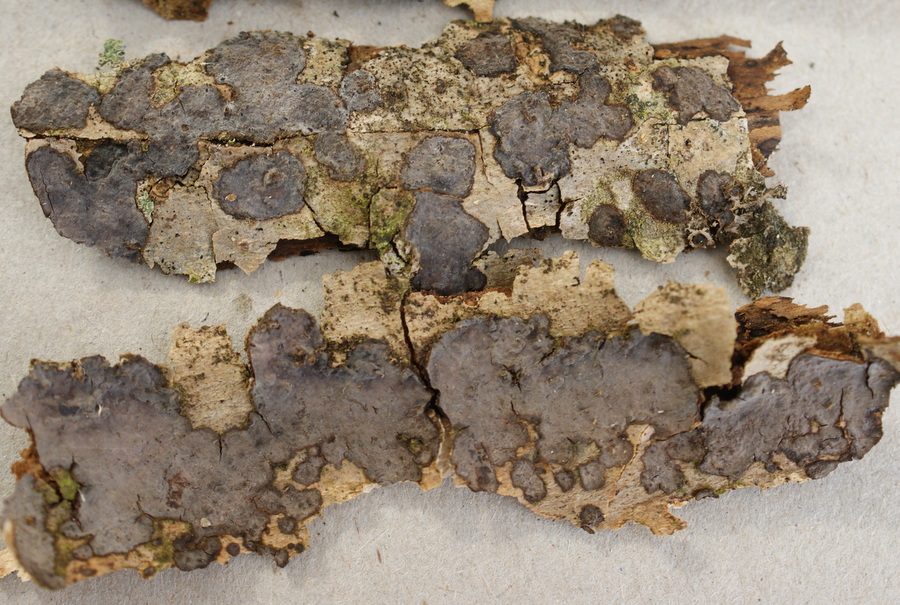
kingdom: Fungi
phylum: Basidiomycota
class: Agaricomycetes
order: Russulales
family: Peniophoraceae
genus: Peniophora
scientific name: Peniophora limitata
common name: mørkrandet voksskind
